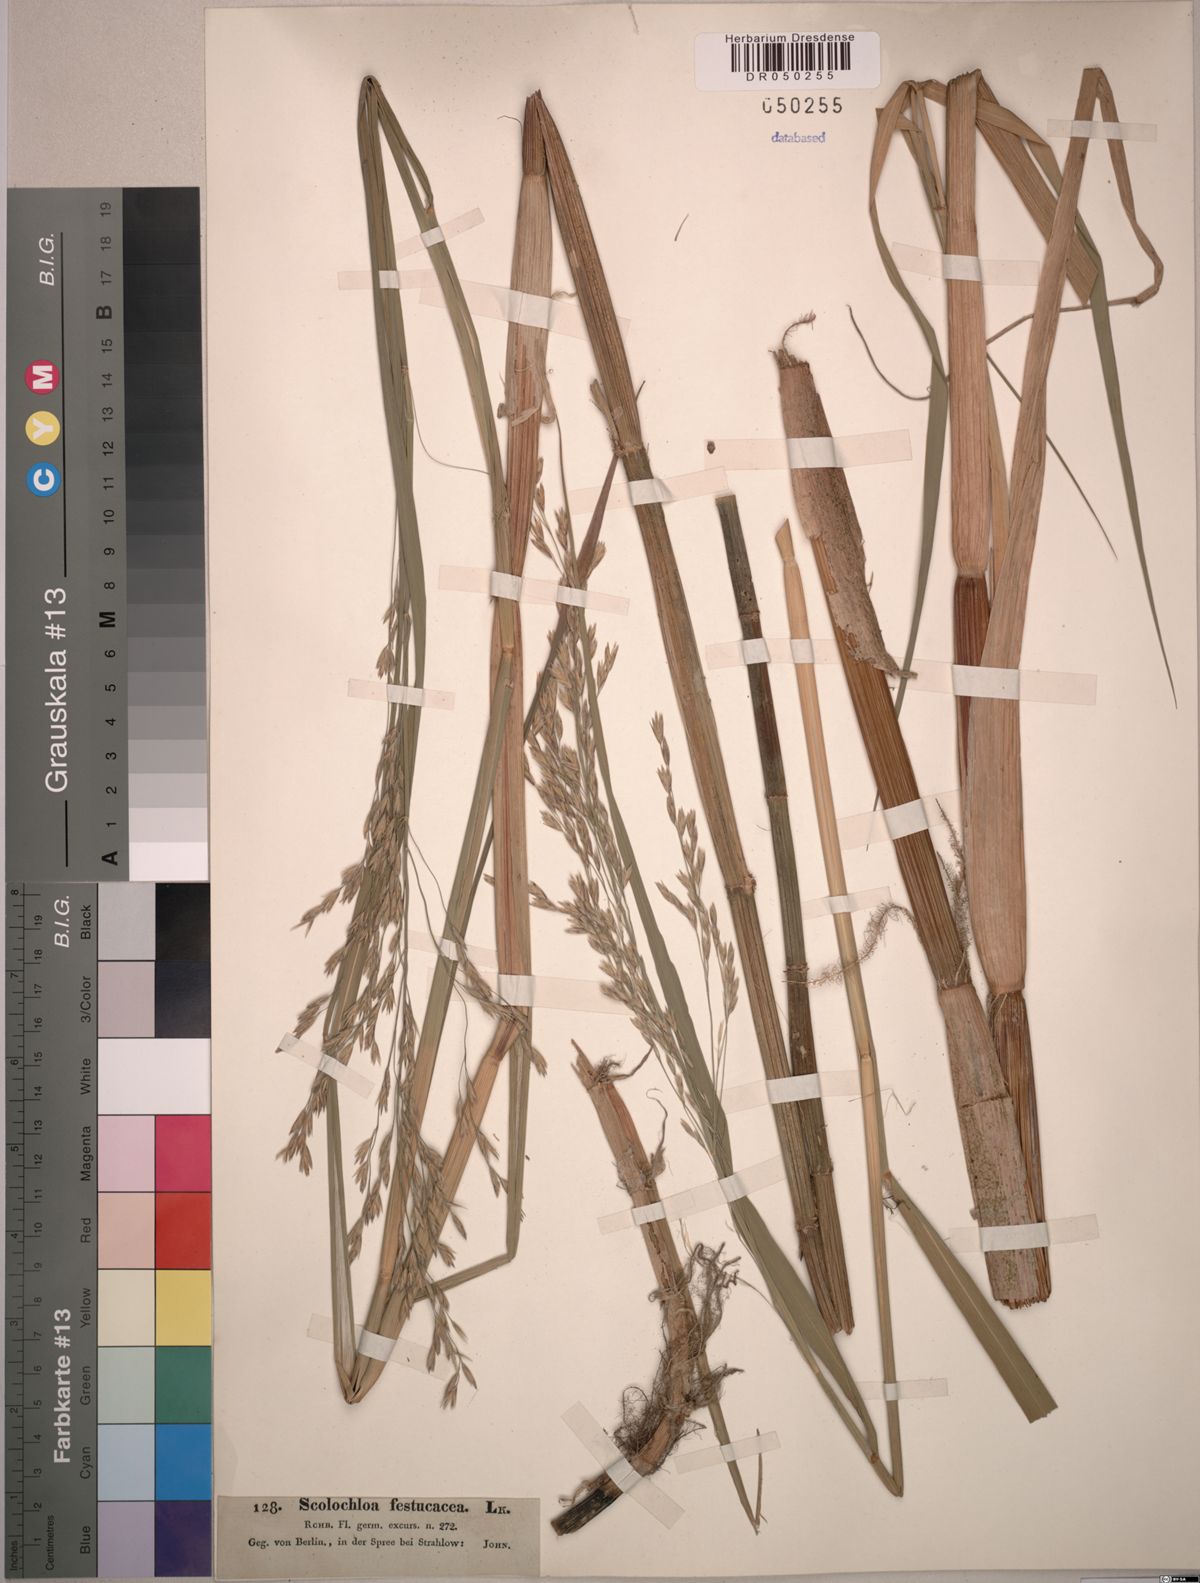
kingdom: Plantae
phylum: Tracheophyta
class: Liliopsida
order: Poales
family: Poaceae
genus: Scolochloa
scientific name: Scolochloa festucacea
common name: Common rivergrass
